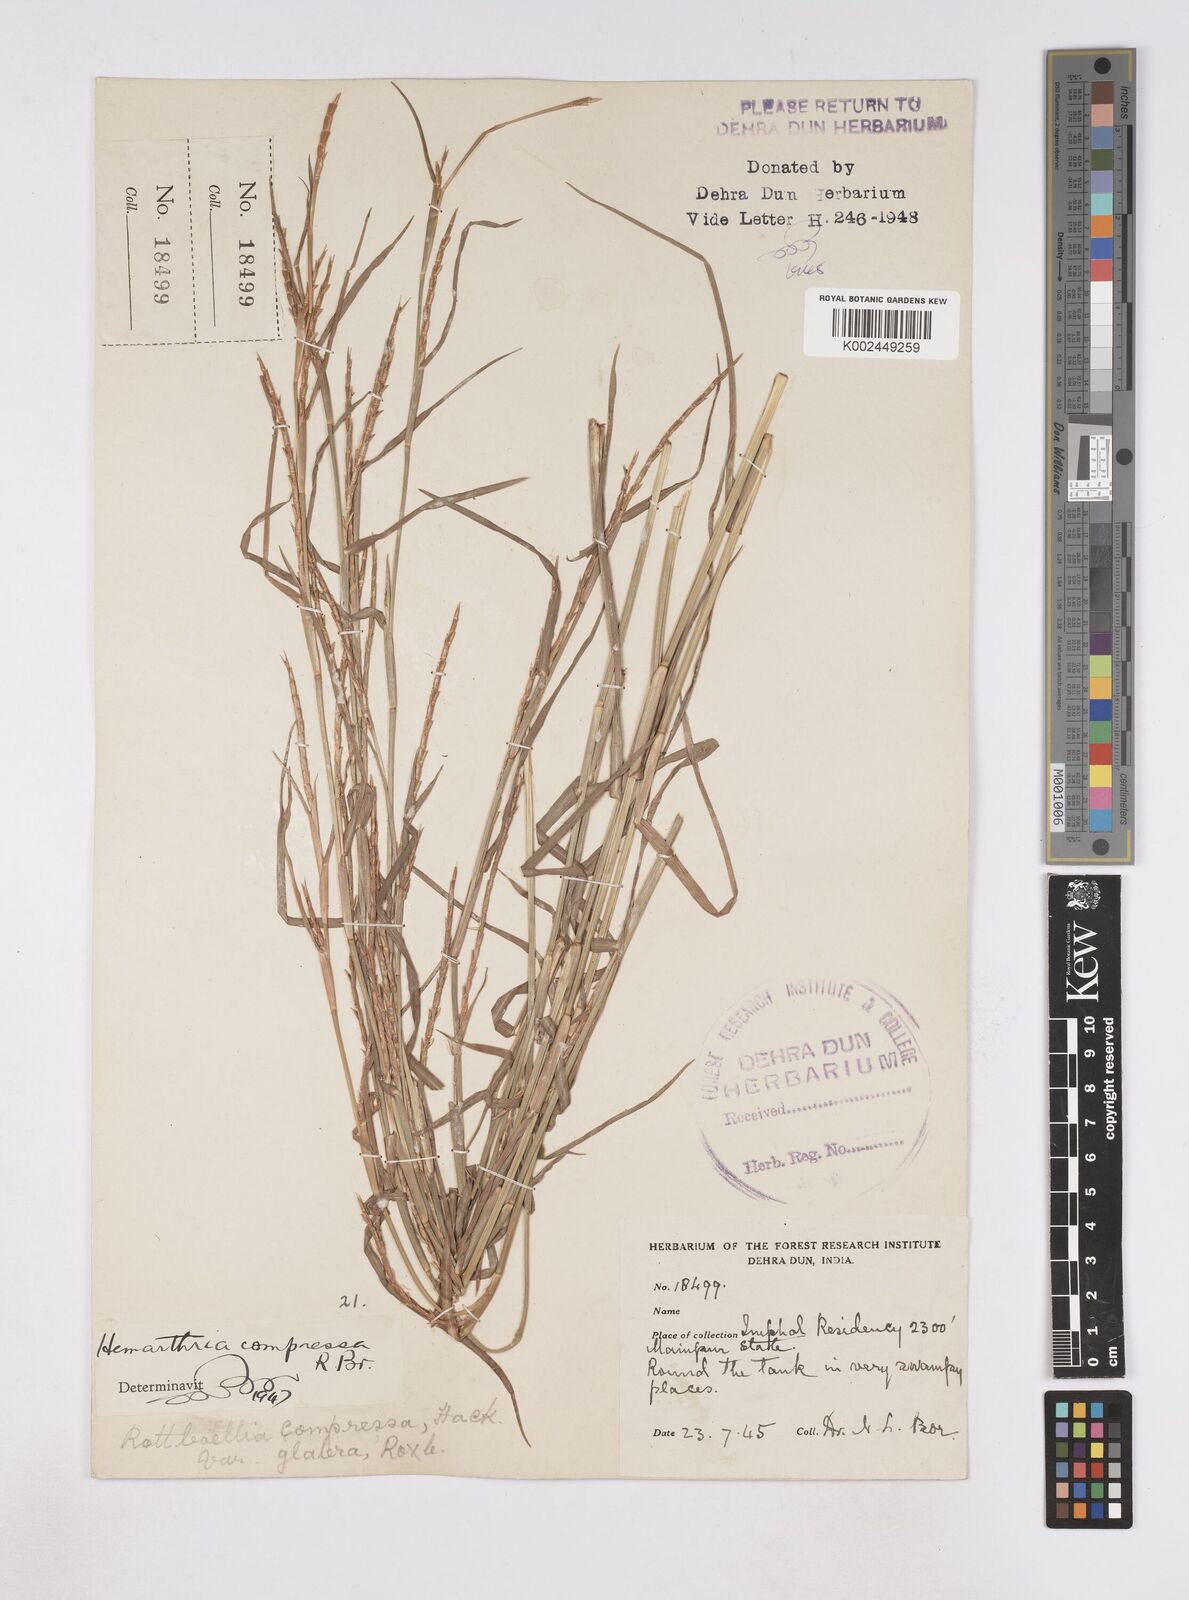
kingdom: Plantae
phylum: Tracheophyta
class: Liliopsida
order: Poales
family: Poaceae
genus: Hemarthria
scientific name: Hemarthria compressa
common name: Whip grass
